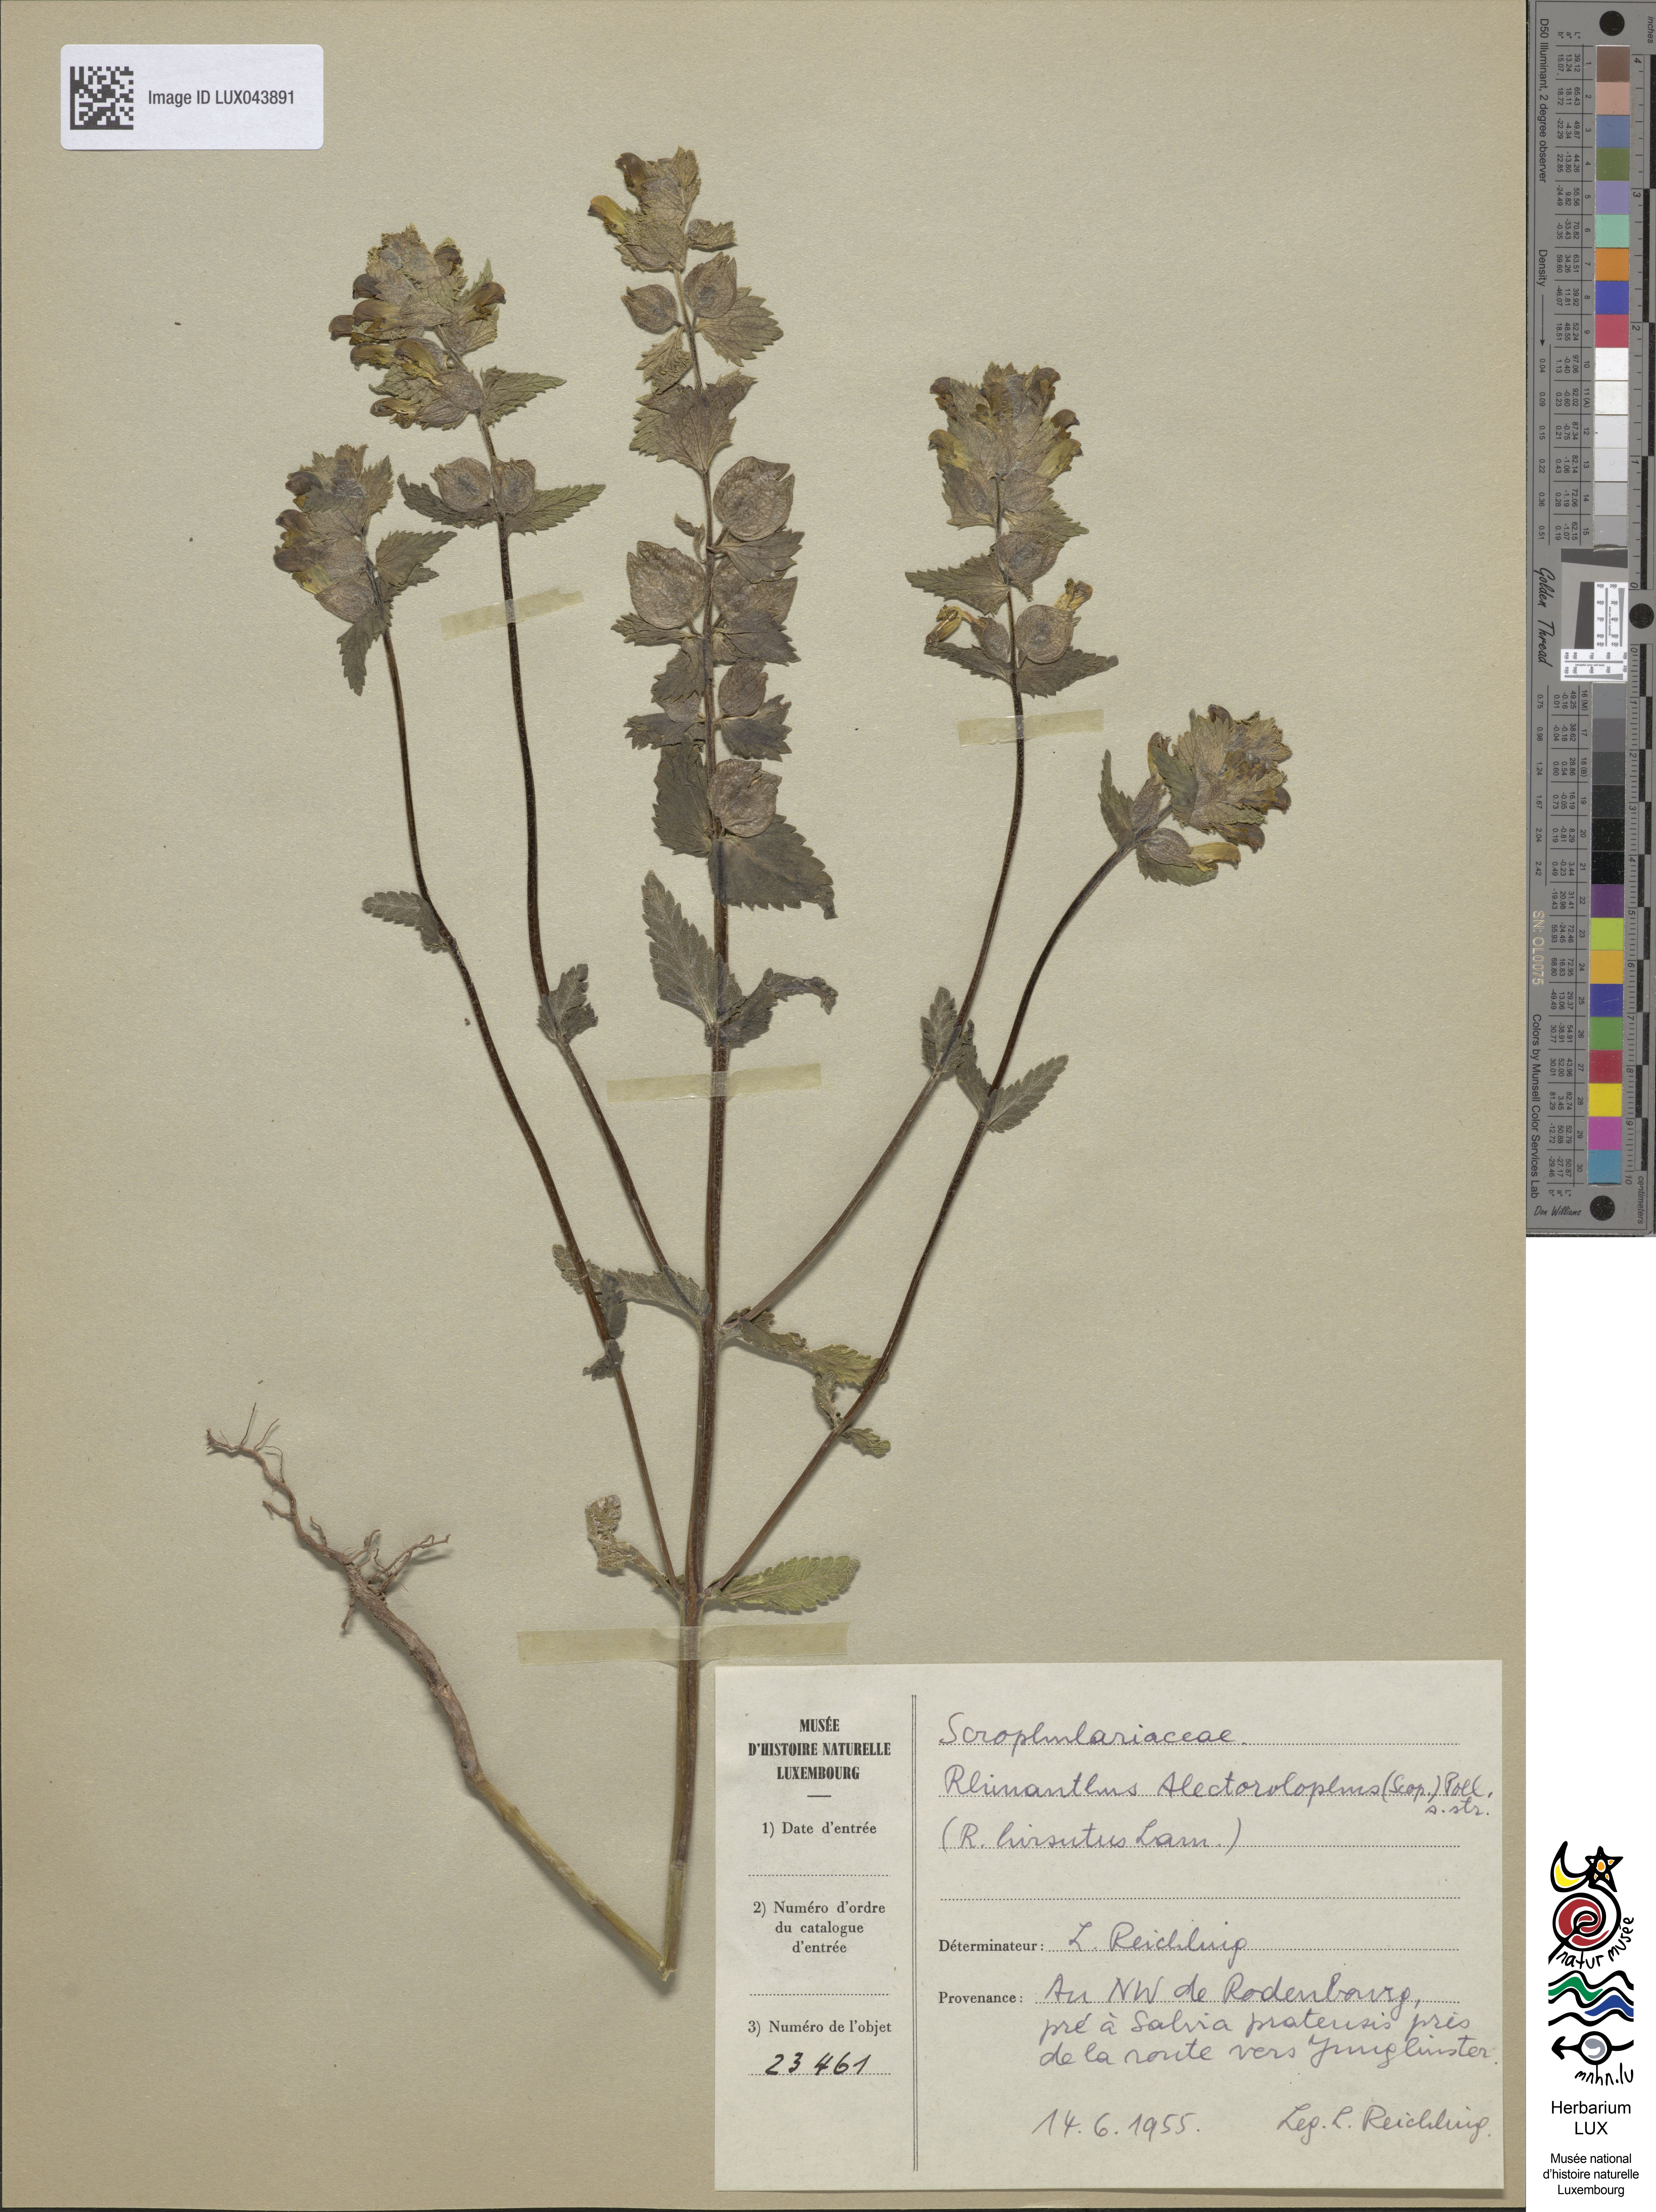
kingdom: Plantae
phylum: Tracheophyta
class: Magnoliopsida
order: Lamiales
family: Orobanchaceae
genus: Rhinanthus
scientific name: Rhinanthus alectorolophus
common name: Greater yellow-rattle
